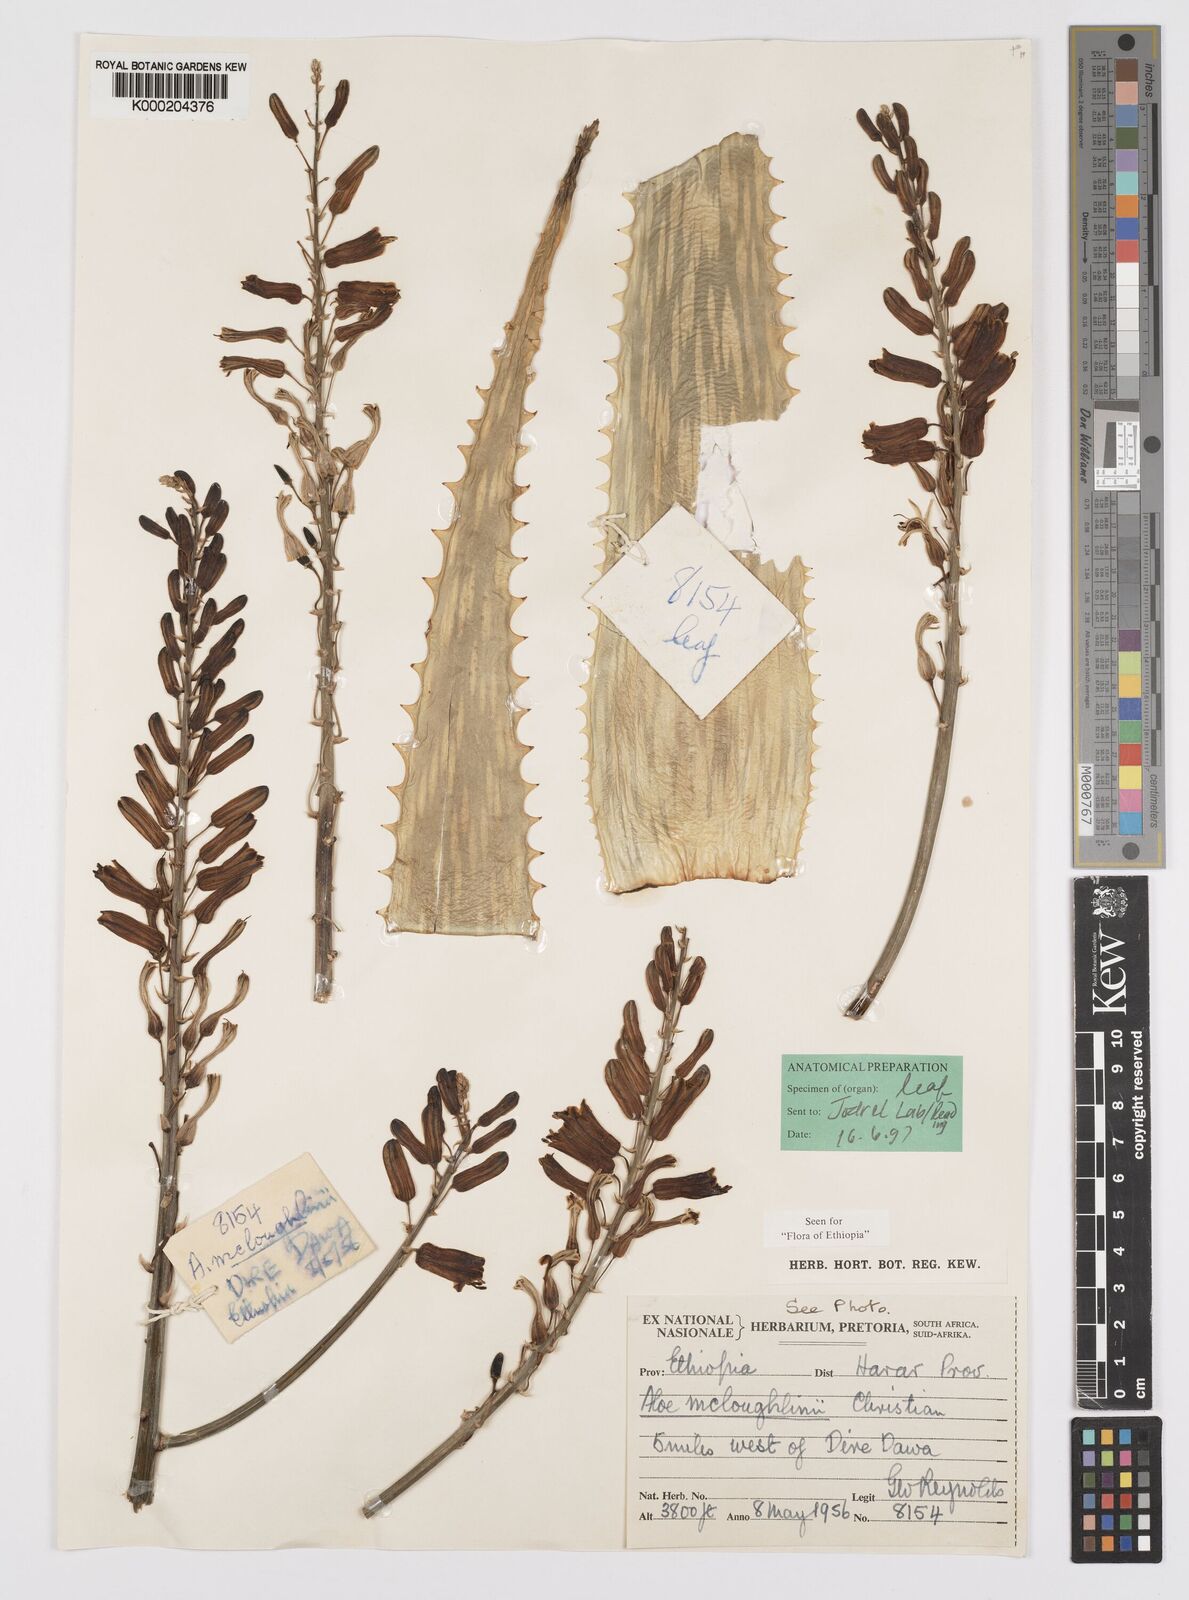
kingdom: Plantae
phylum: Tracheophyta
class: Liliopsida
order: Asparagales
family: Asphodelaceae
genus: Aloe
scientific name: Aloe
